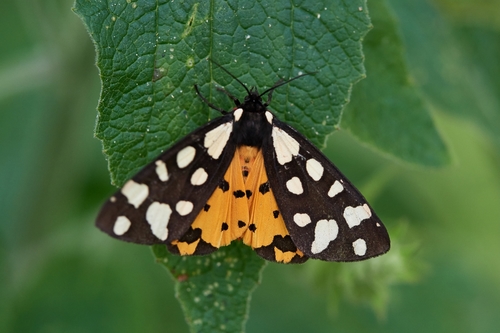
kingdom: Animalia
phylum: Arthropoda
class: Insecta
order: Lepidoptera
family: Erebidae
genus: Epicallia
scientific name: Epicallia villica
